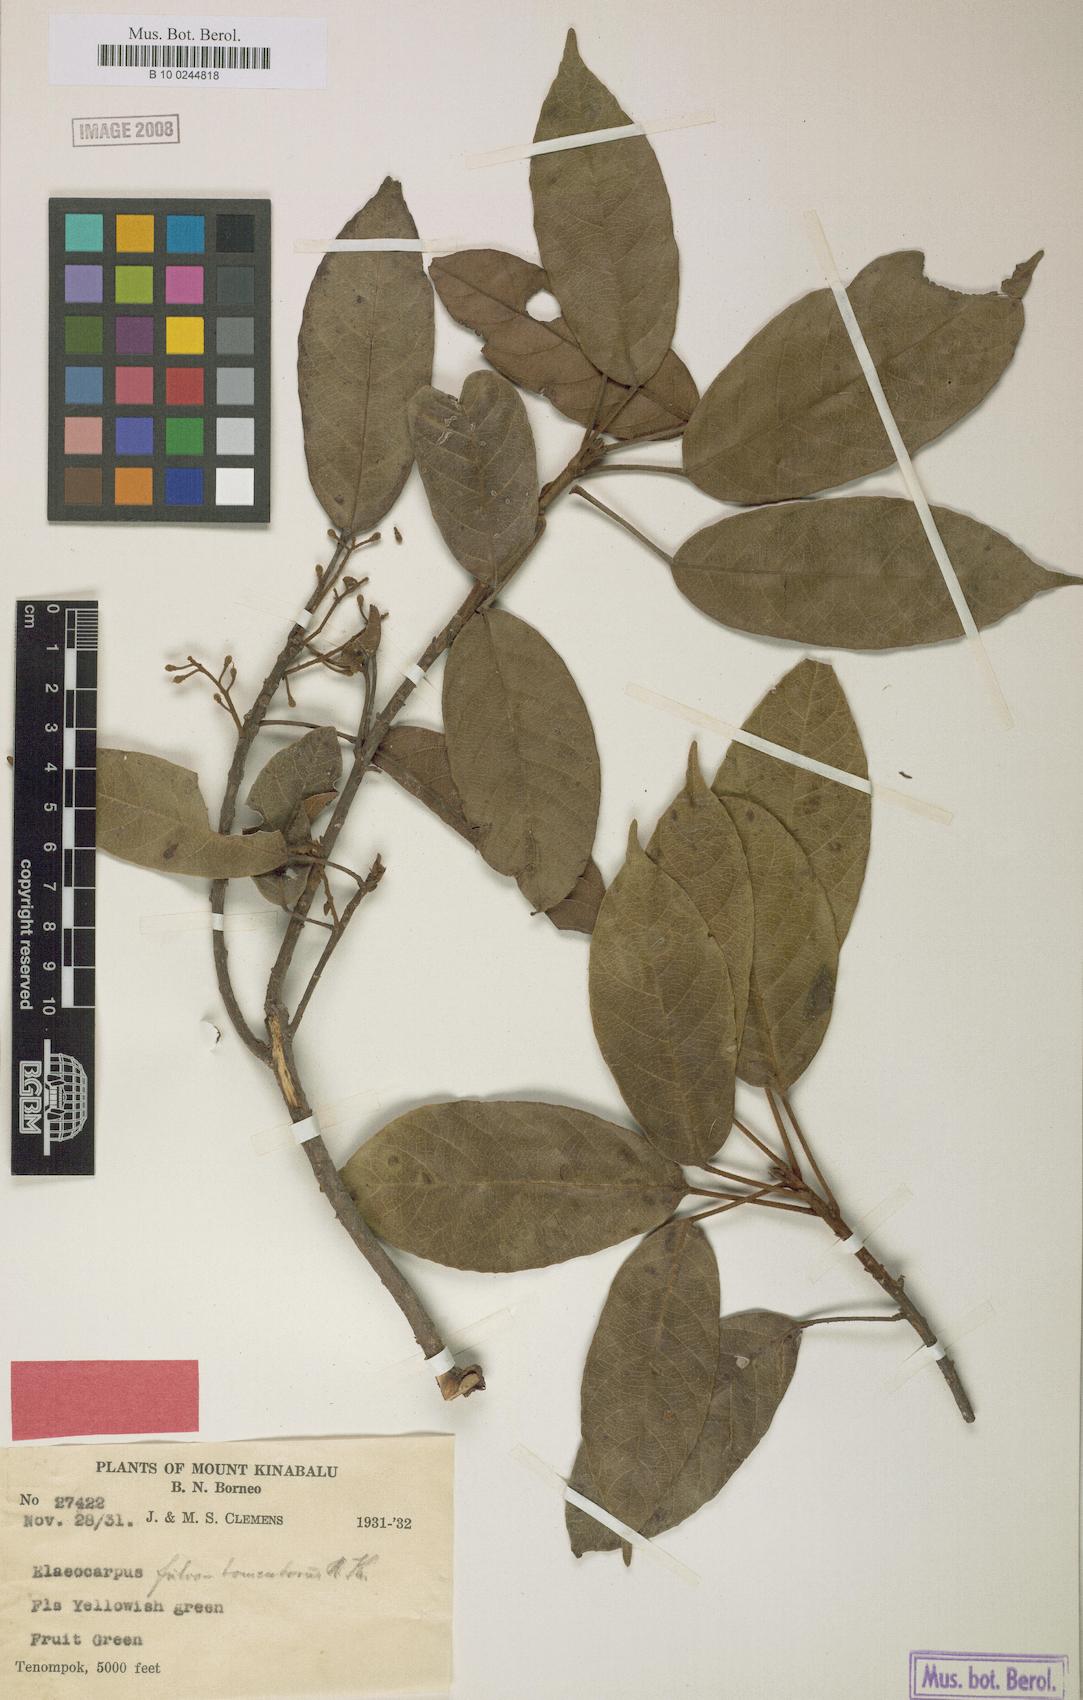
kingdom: Plantae
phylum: Tracheophyta
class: Magnoliopsida
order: Oxalidales
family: Elaeocarpaceae
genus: Elaeocarpus
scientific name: Elaeocarpus ferrugineus
